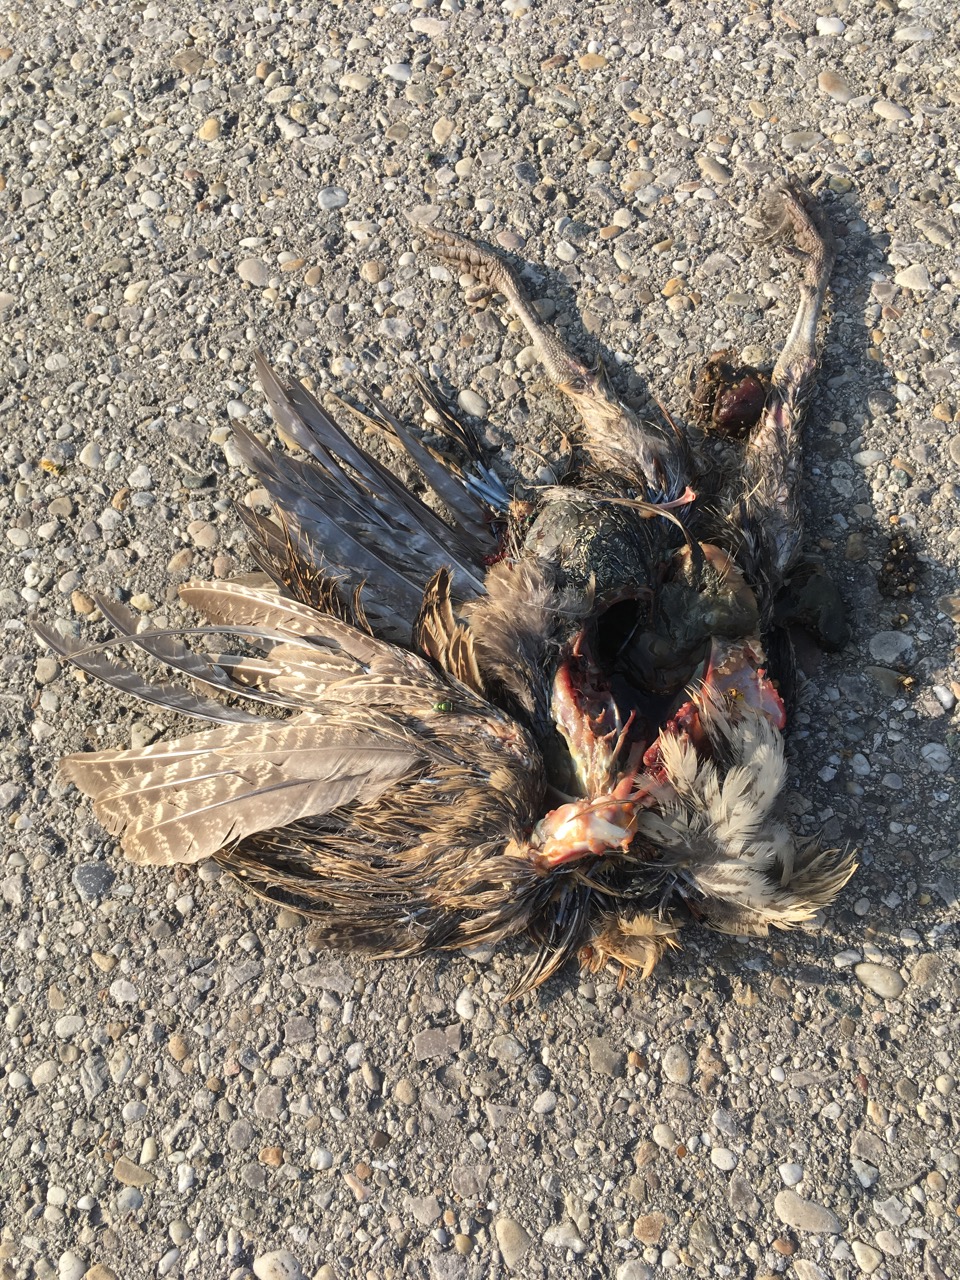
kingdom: Animalia
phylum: Chordata
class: Aves
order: Galliformes
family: Phasianidae
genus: Phasianus
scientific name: Phasianus colchicus
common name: Common pheasant
